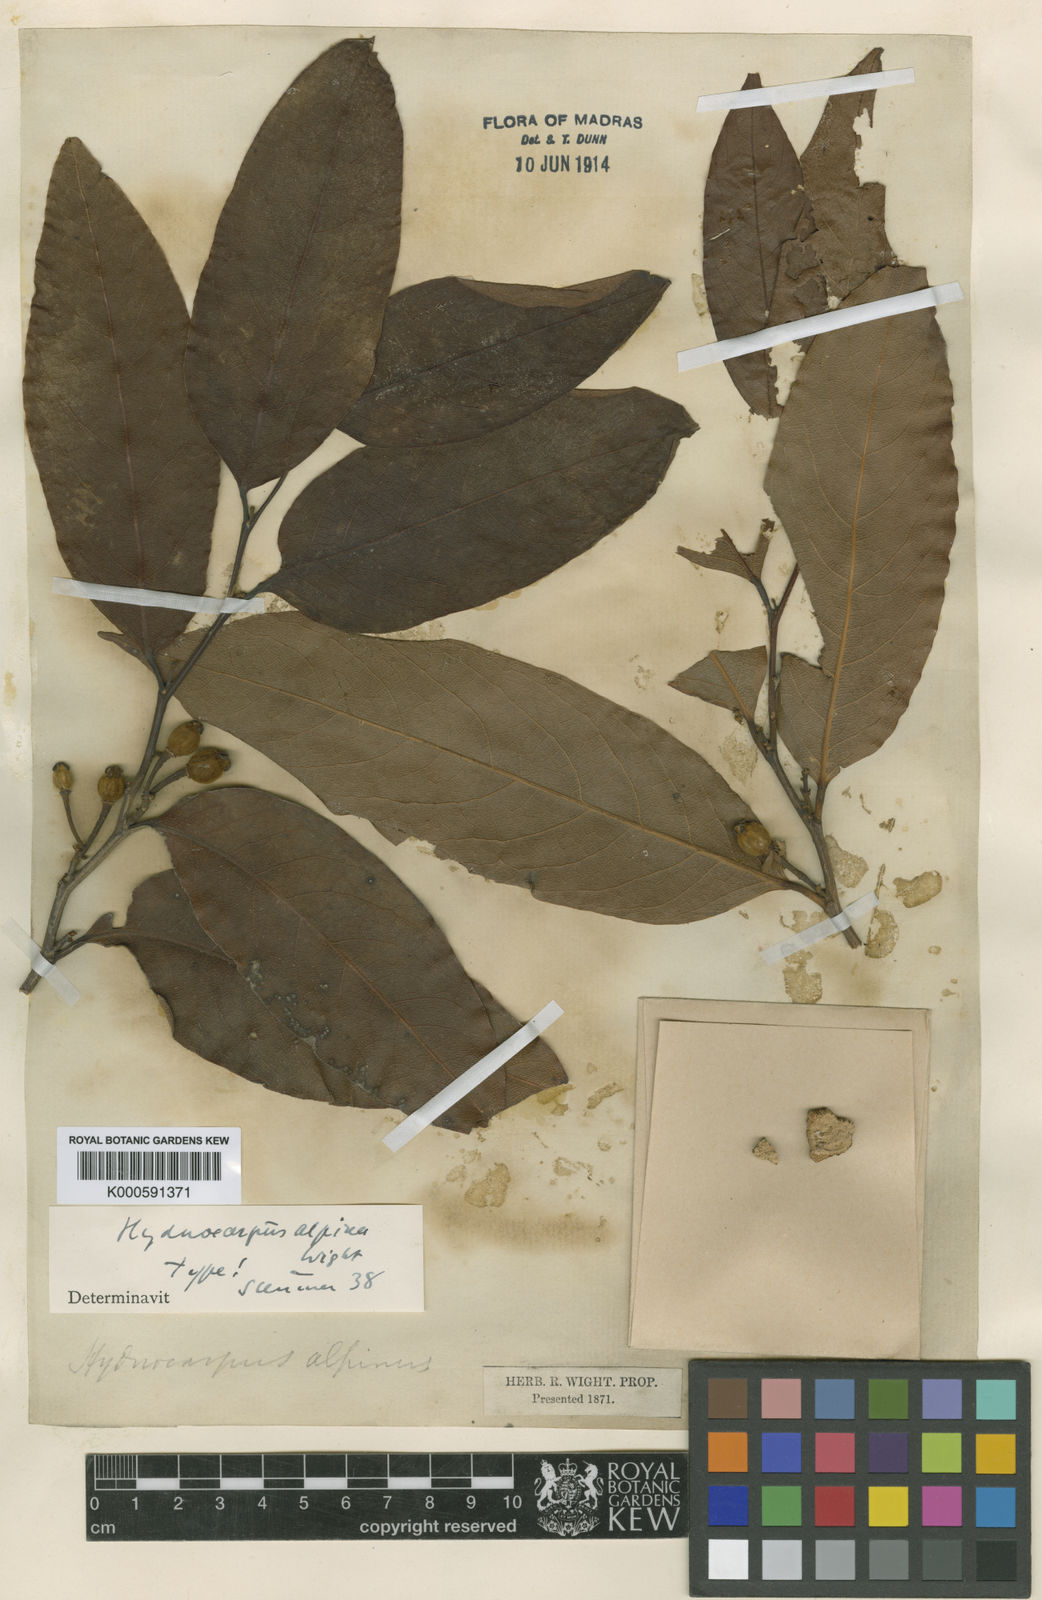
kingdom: Plantae
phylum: Tracheophyta
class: Magnoliopsida
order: Malpighiales
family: Achariaceae
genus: Hydnocarpus
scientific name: Hydnocarpus alpinus
